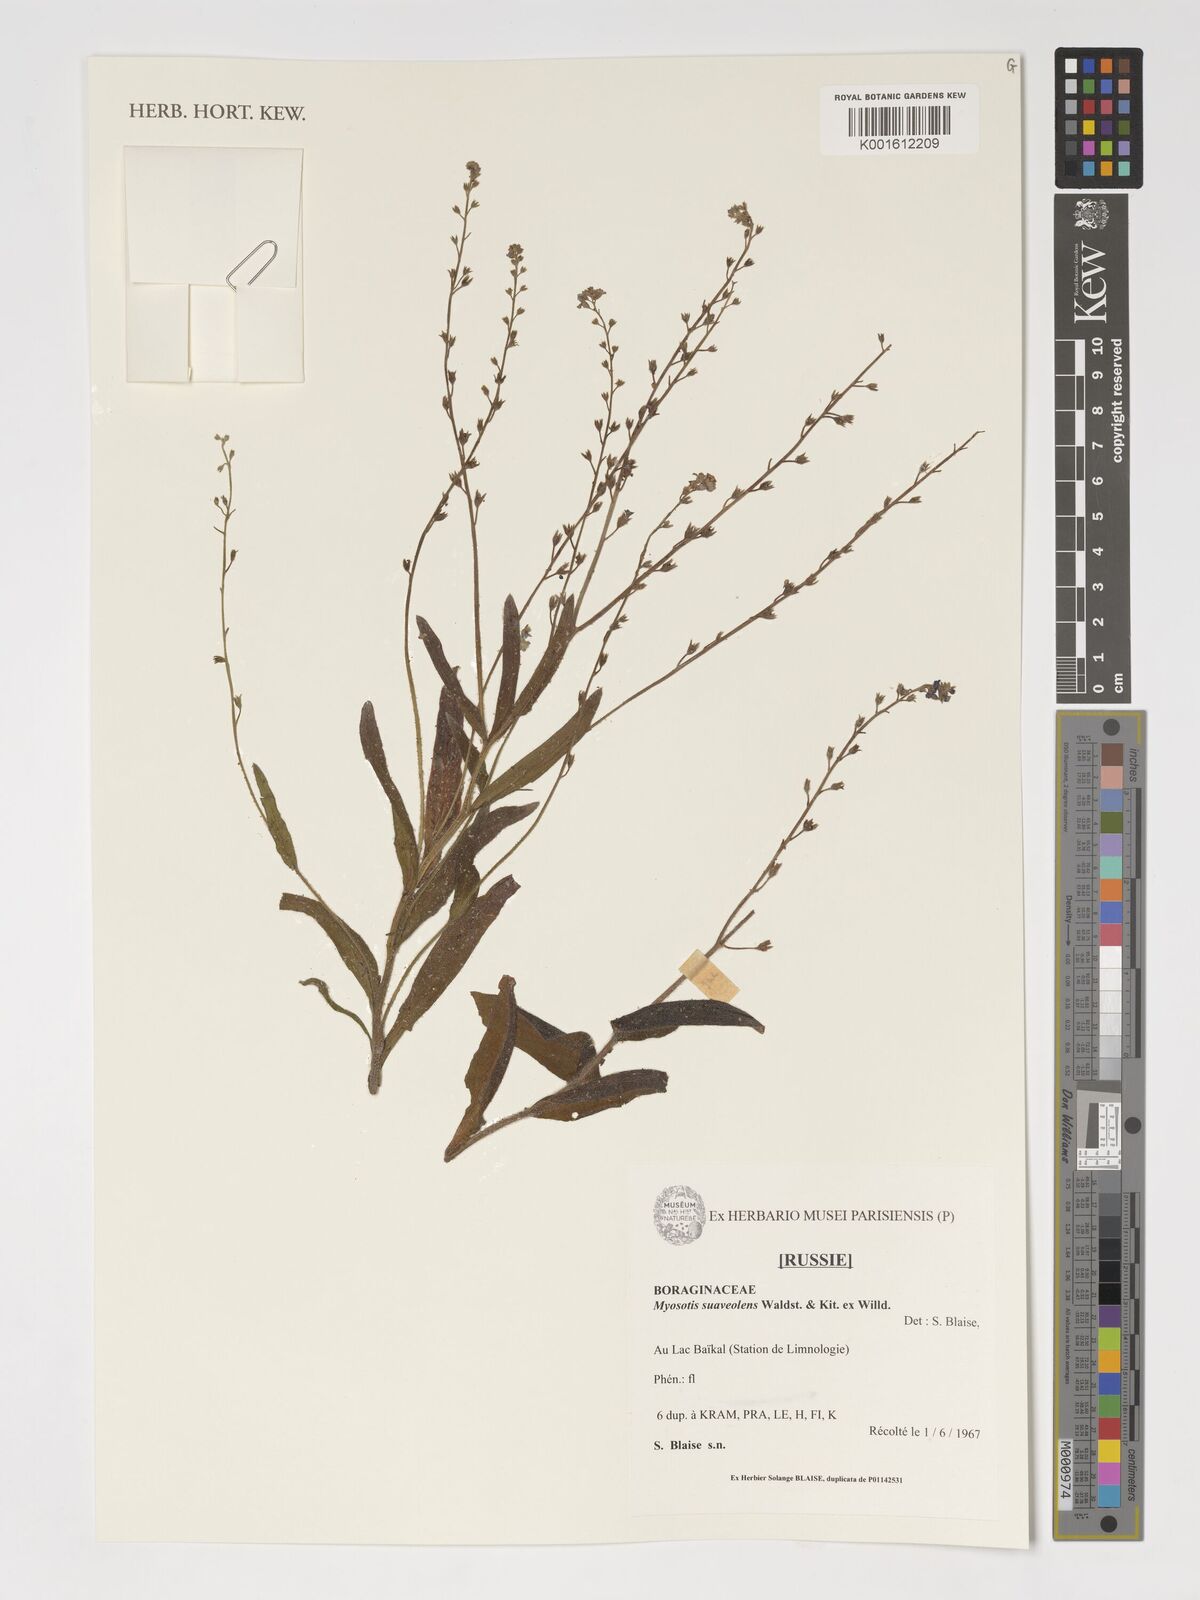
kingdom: Plantae
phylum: Tracheophyta
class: Magnoliopsida
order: Boraginales
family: Boraginaceae
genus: Myosotis
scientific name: Myosotis alpestris
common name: Alpine forget-me-not
